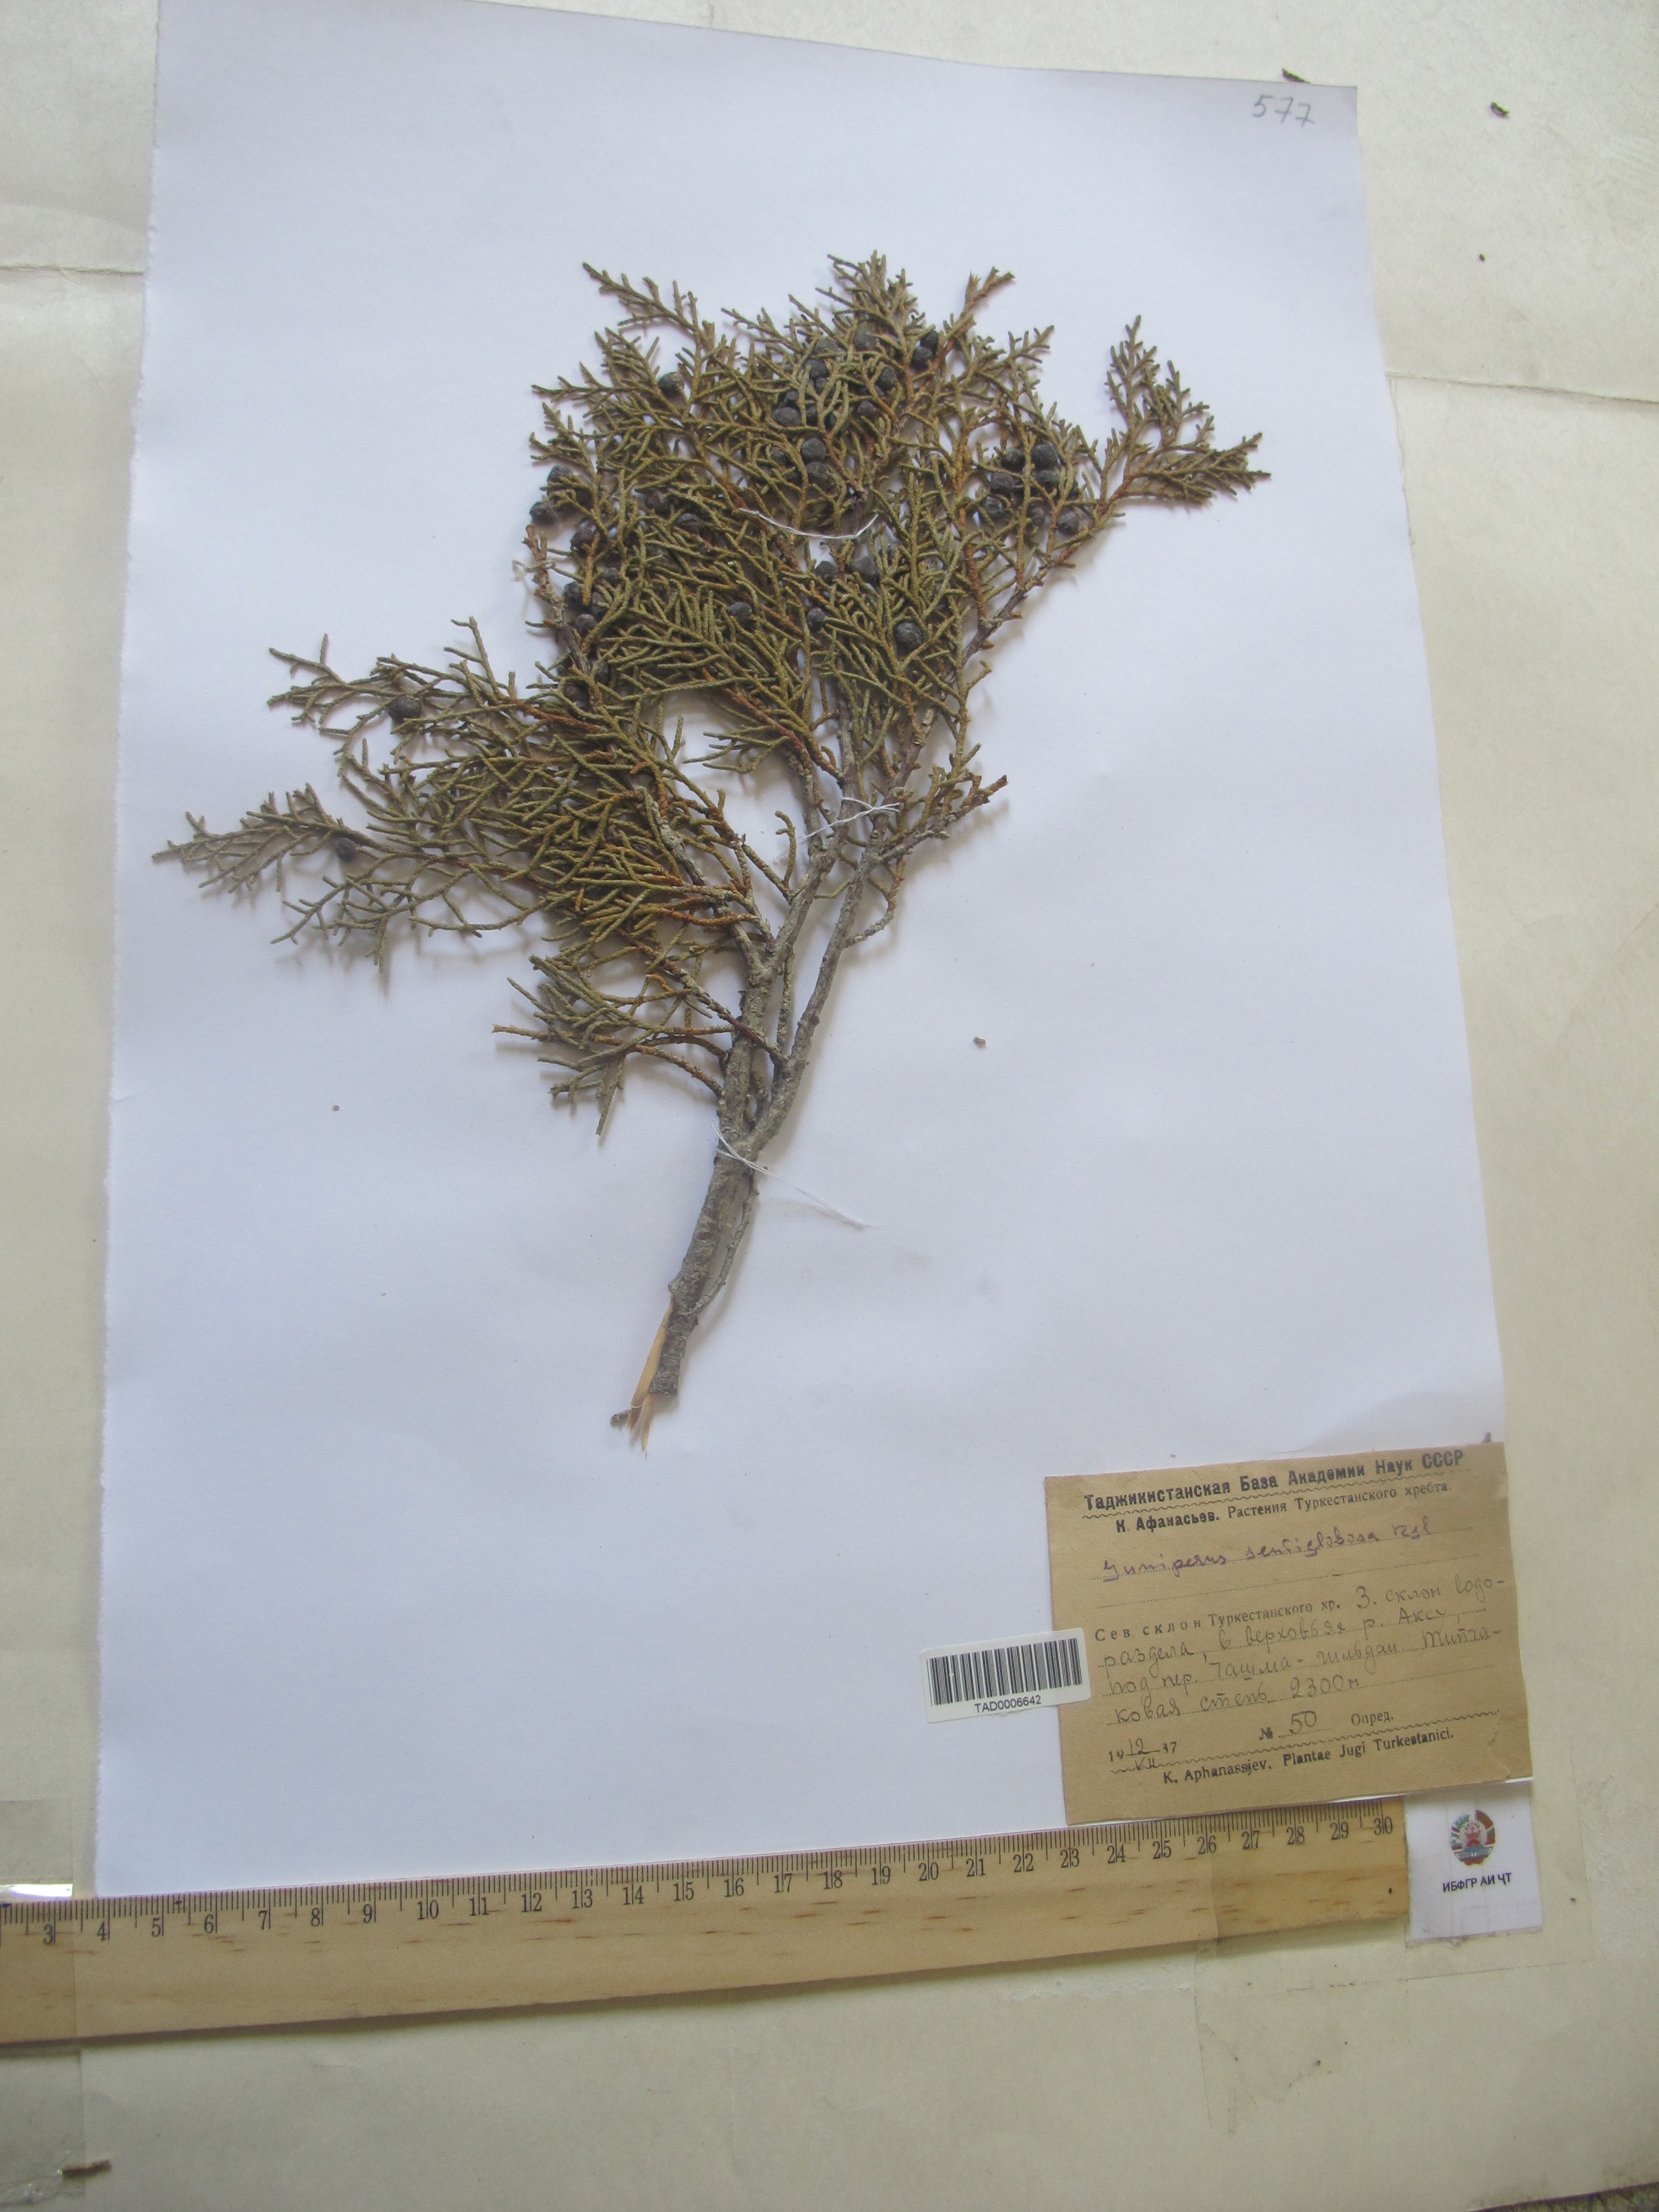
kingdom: Plantae
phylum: Tracheophyta
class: Pinopsida
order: Pinales
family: Cupressaceae
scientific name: Cupressaceae
